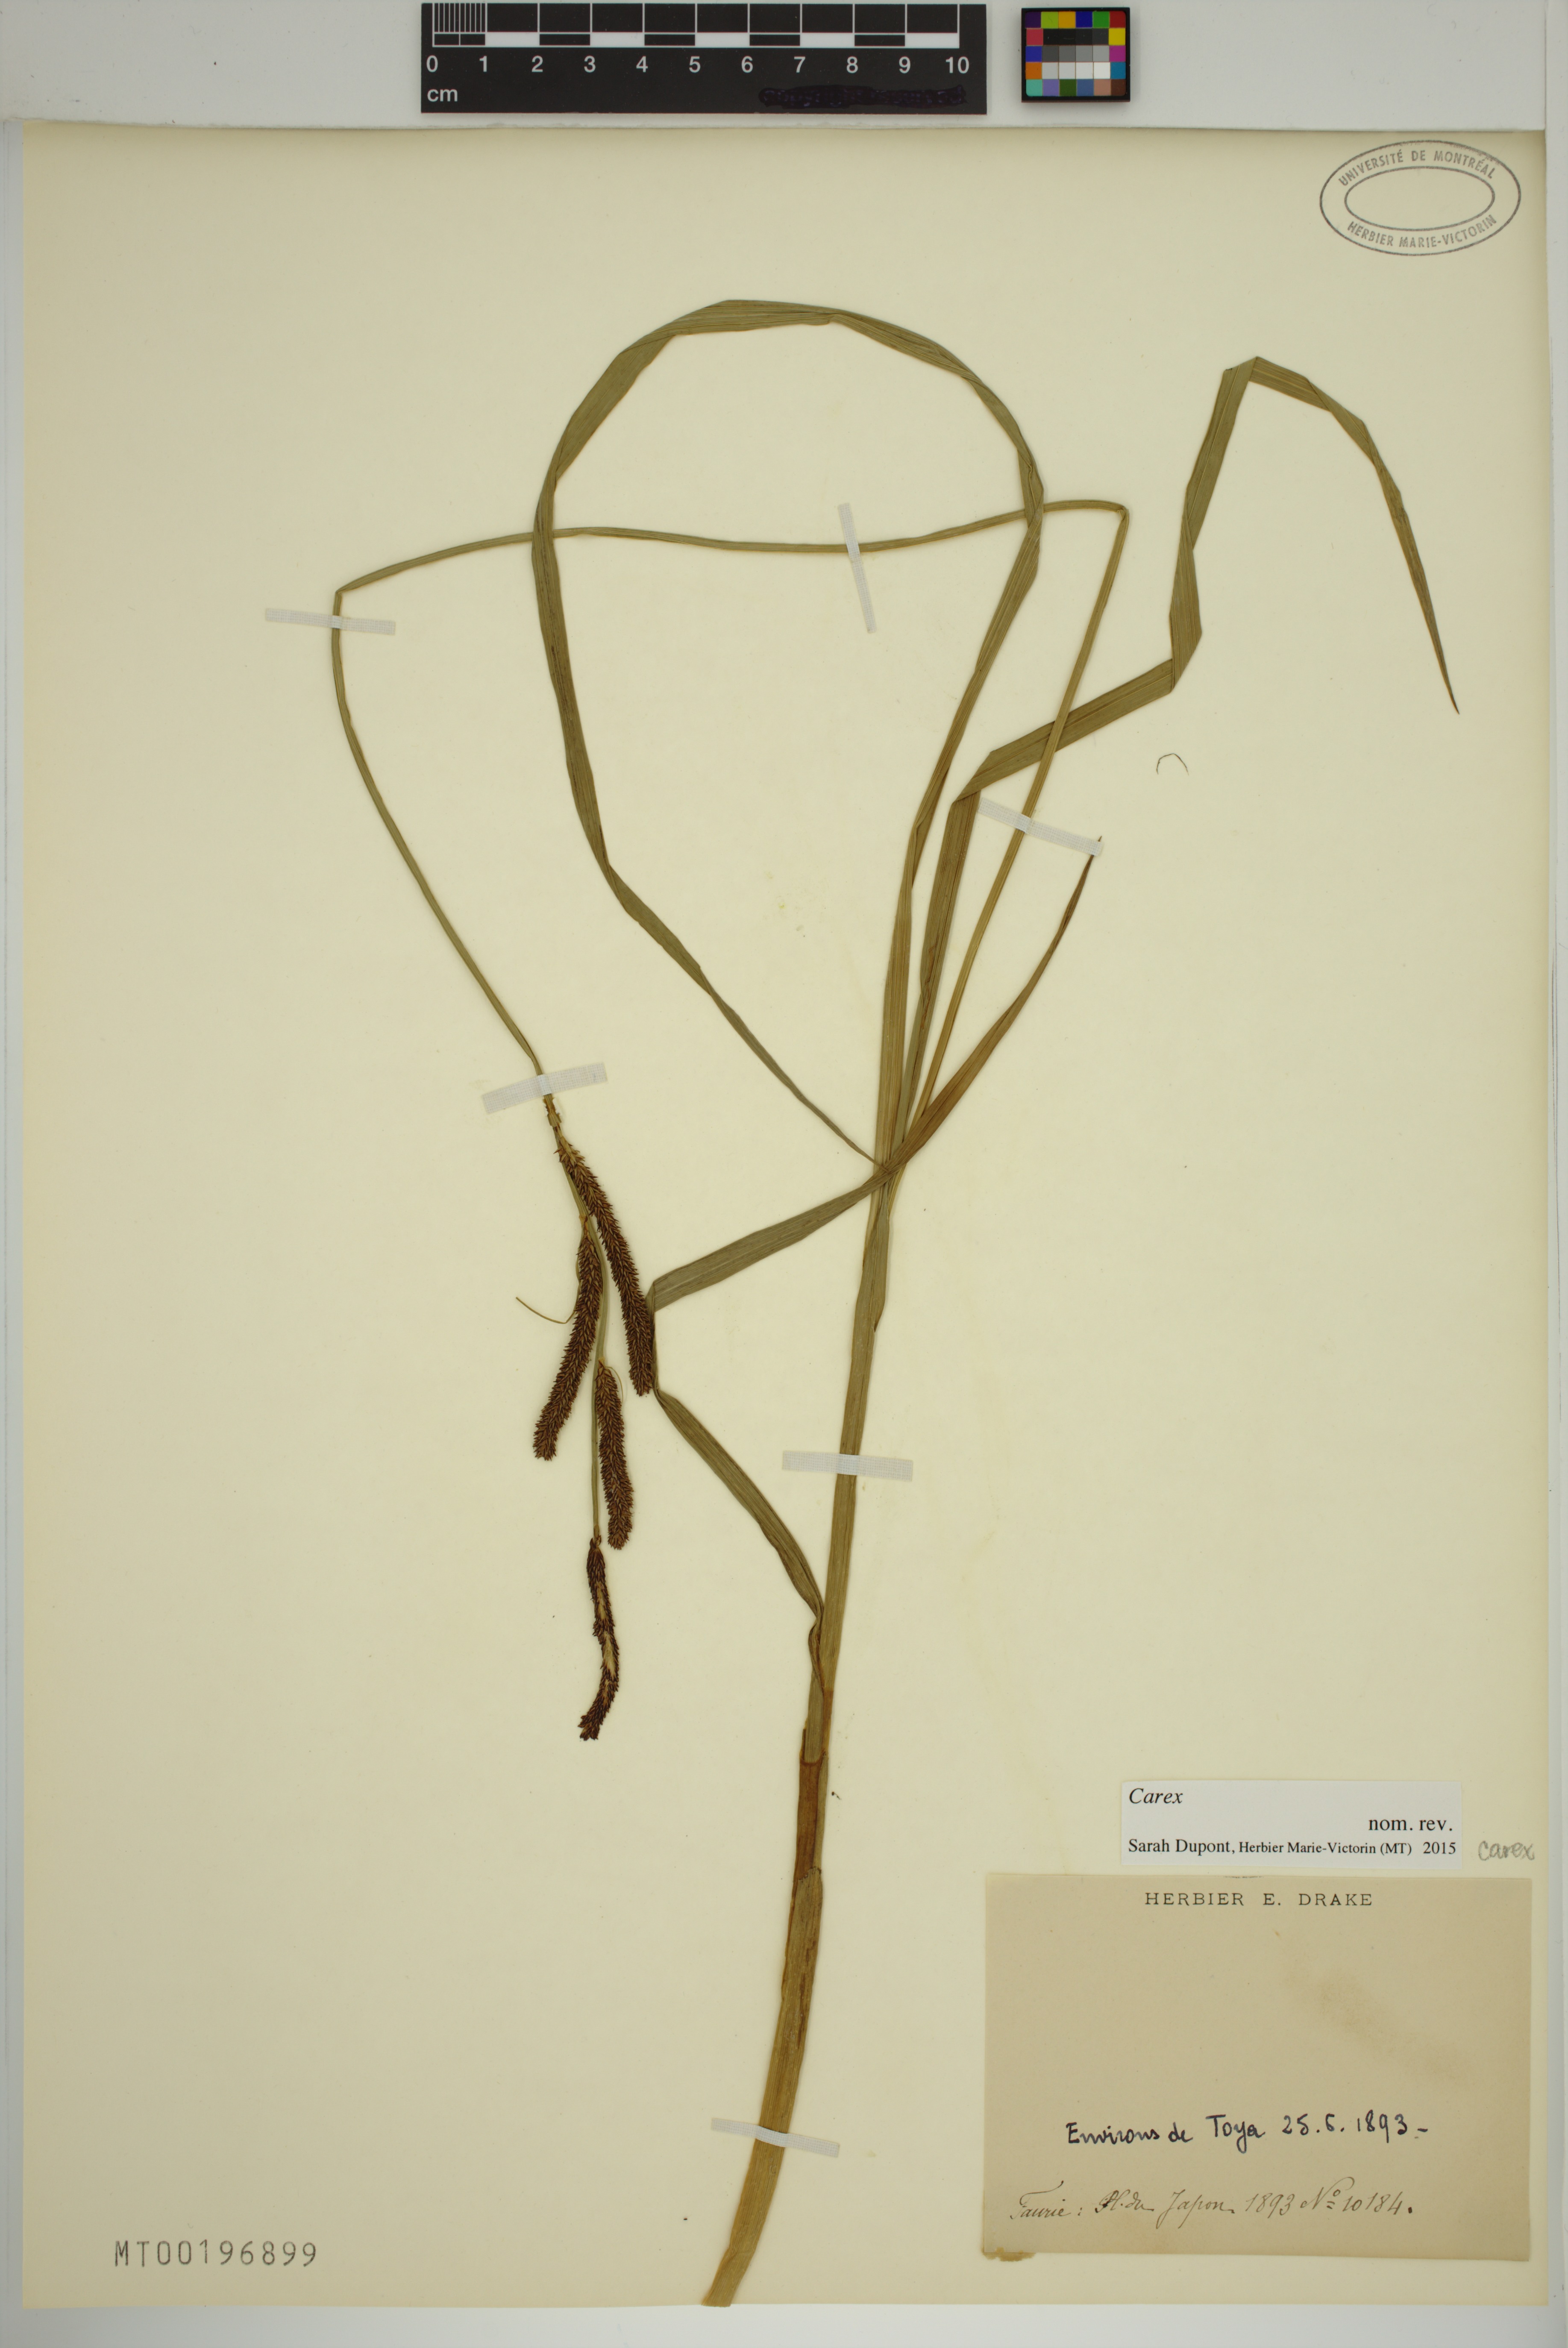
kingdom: Plantae
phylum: Tracheophyta
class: Liliopsida
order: Poales
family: Cyperaceae
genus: Carex
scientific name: Carex
